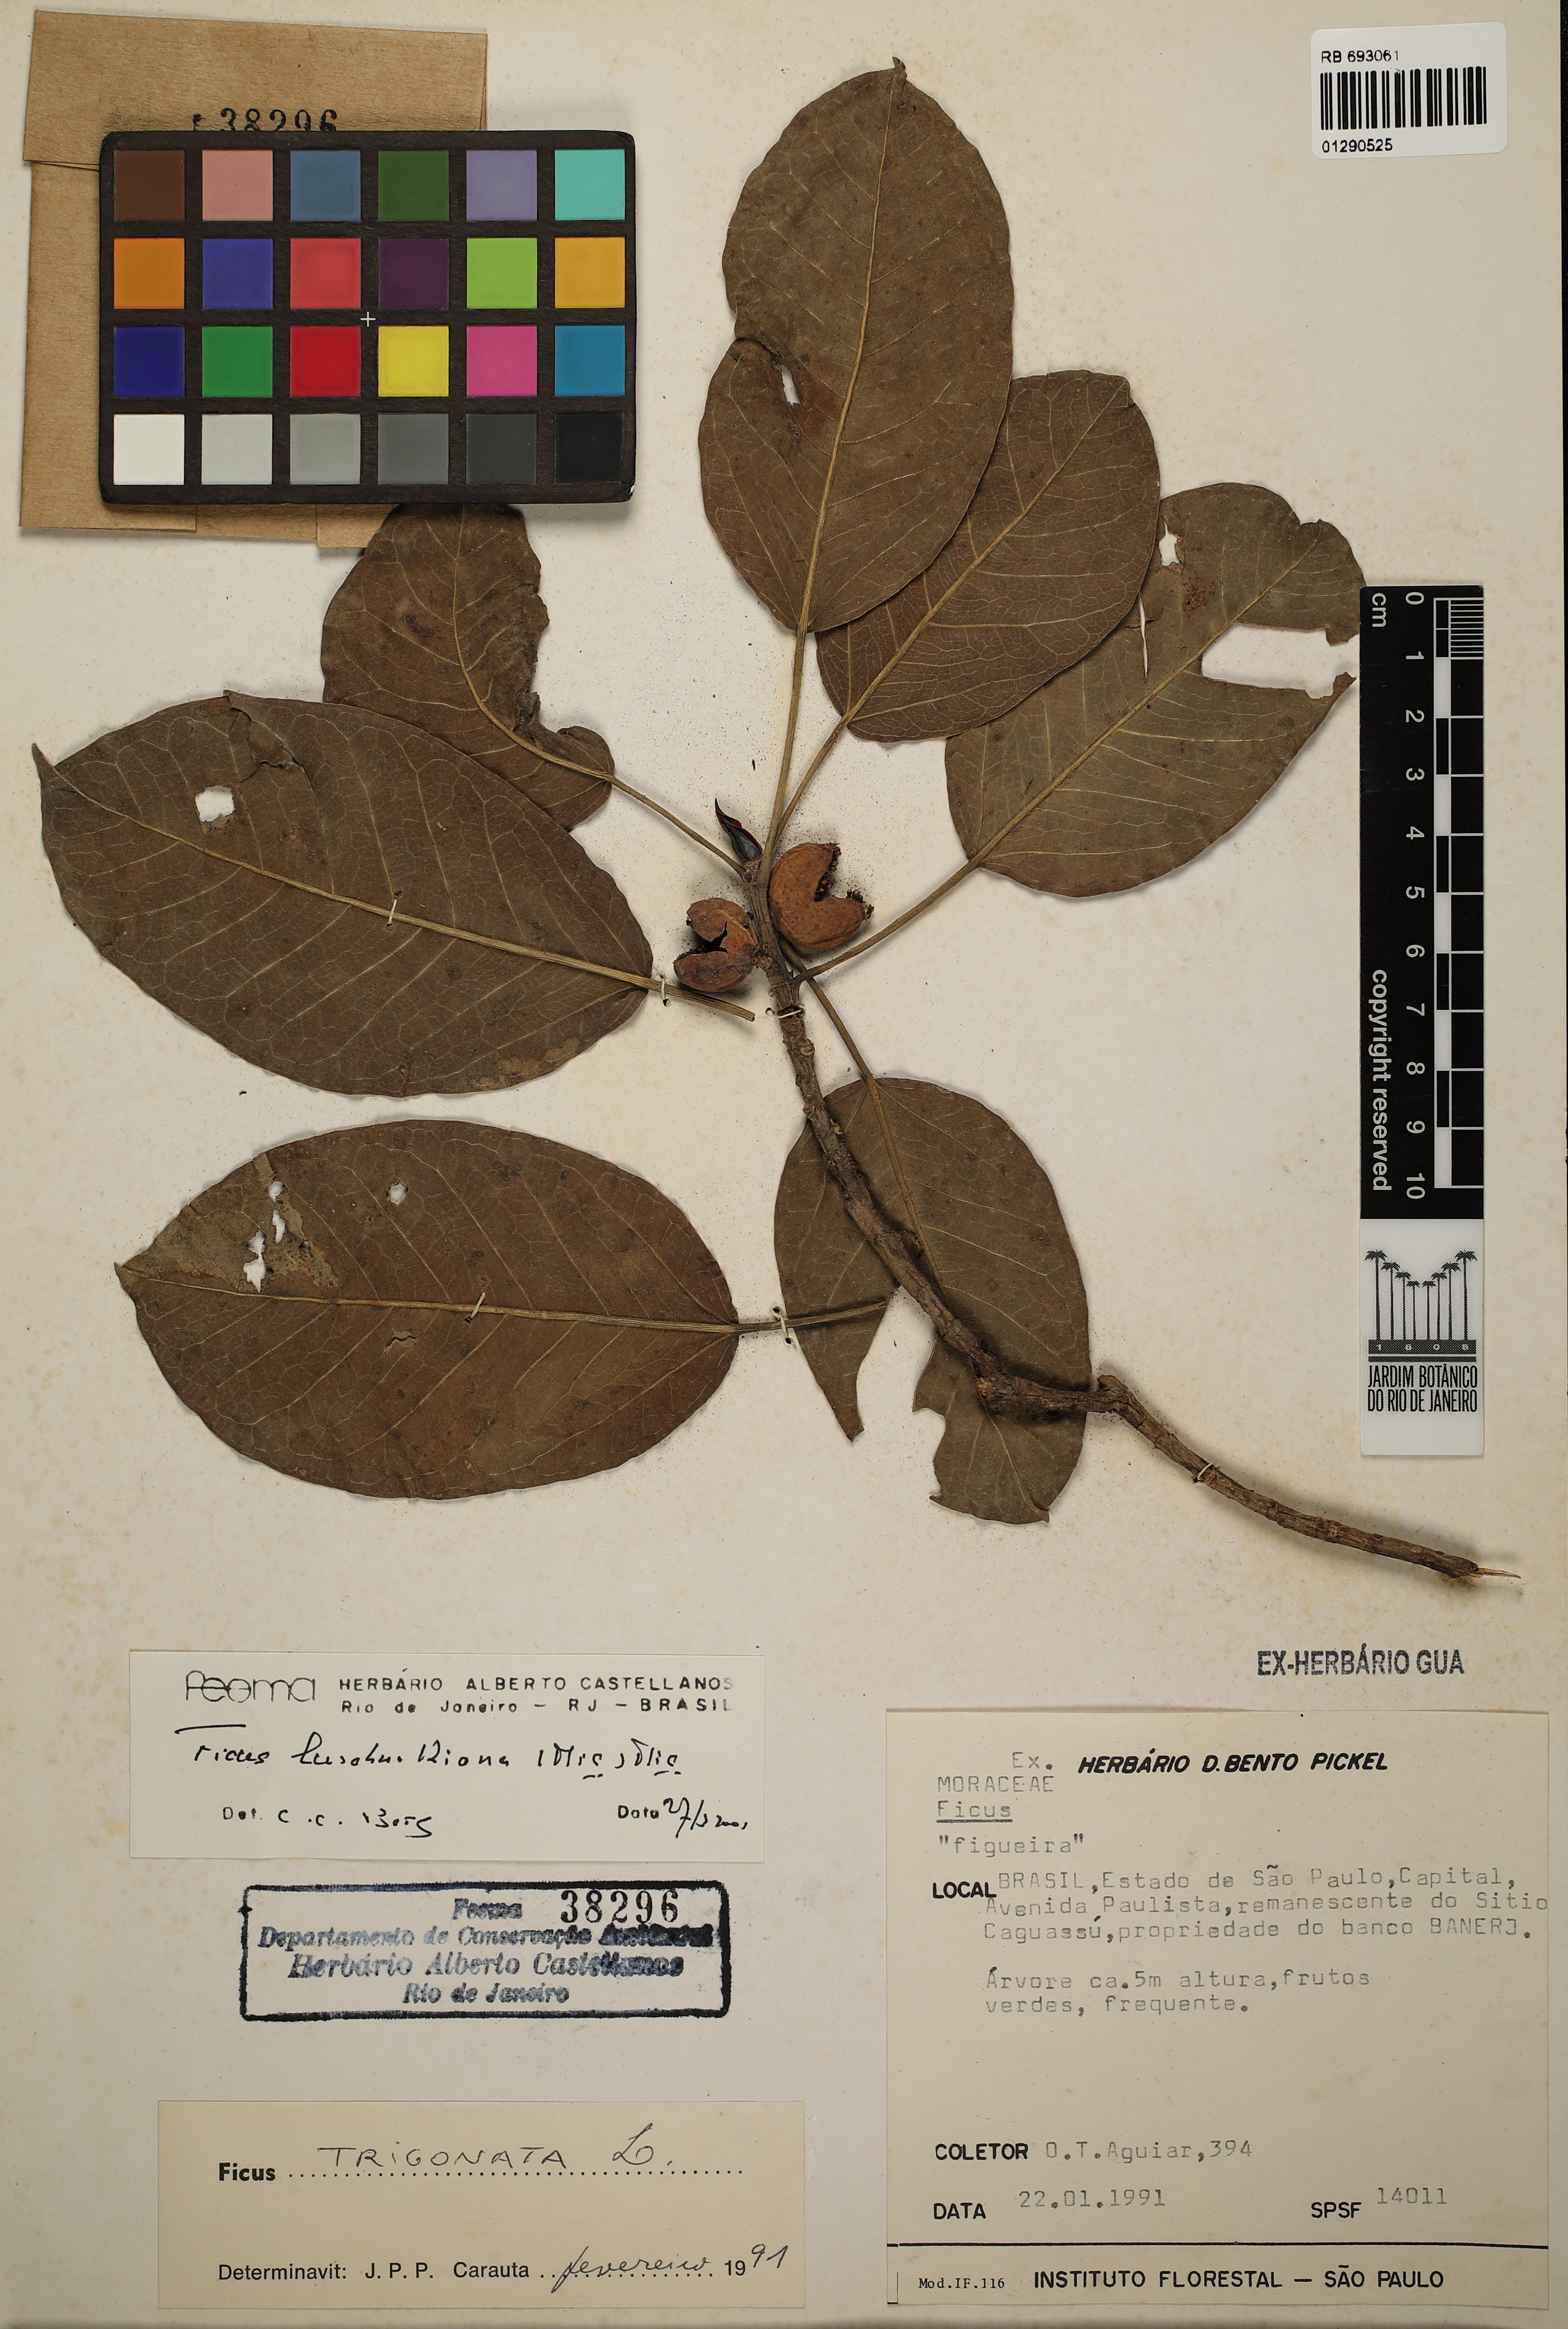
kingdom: Plantae
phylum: Tracheophyta
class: Magnoliopsida
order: Rosales
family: Moraceae
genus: Ficus
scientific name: Ficus luschnathiana
